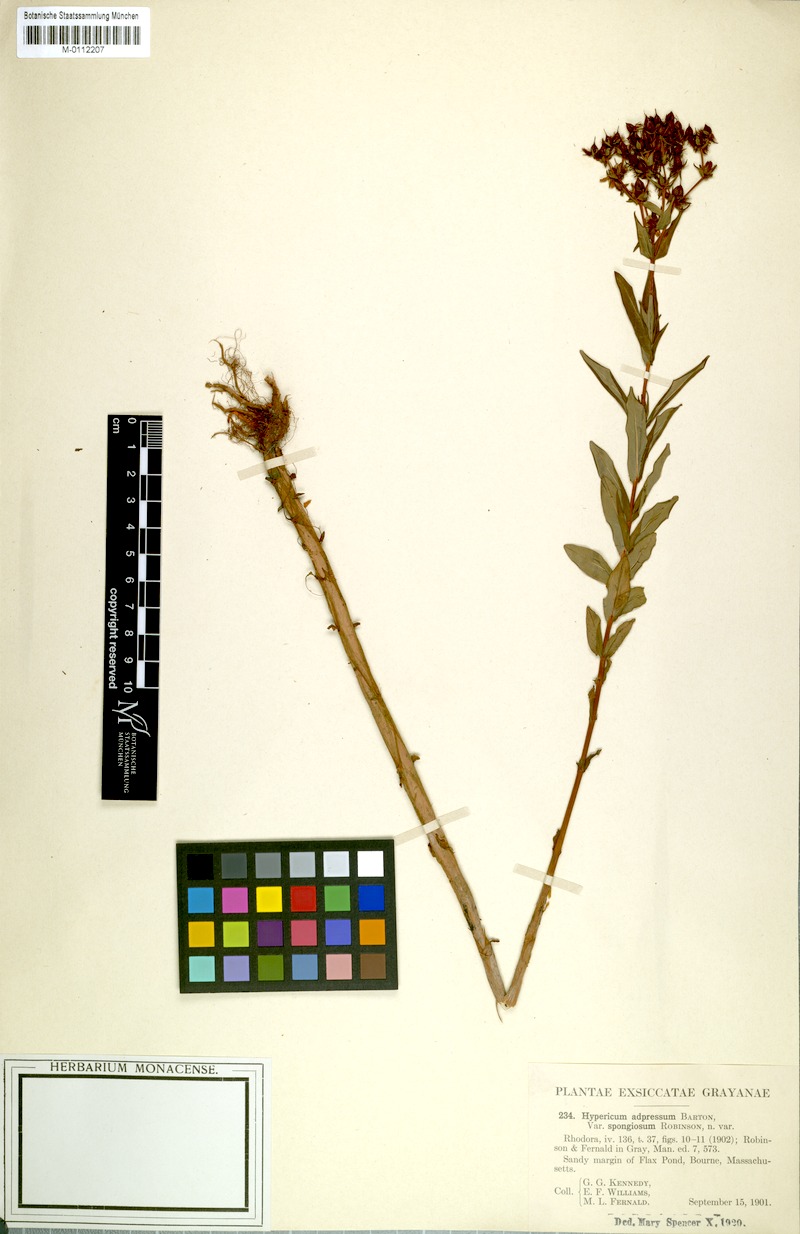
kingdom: Plantae
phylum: Tracheophyta
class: Magnoliopsida
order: Malpighiales
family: Hypericaceae
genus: Hypericum
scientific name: Hypericum adpressum
